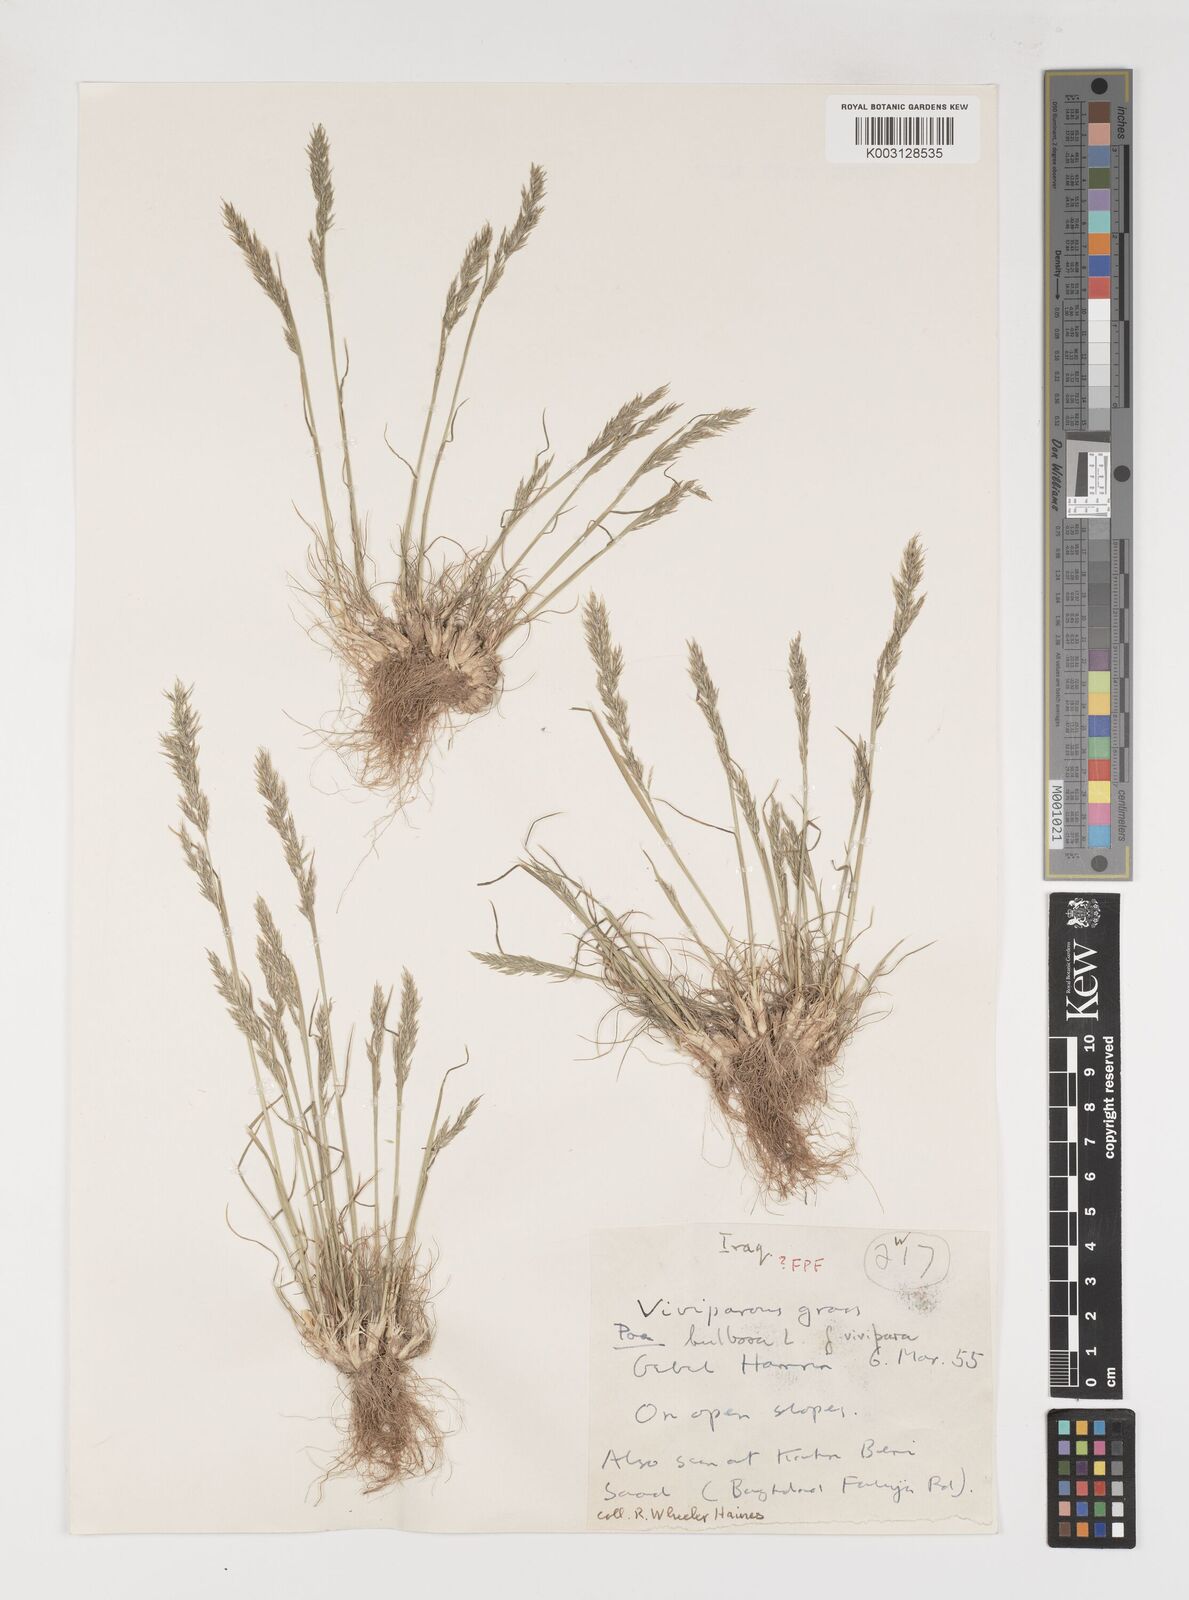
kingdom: Plantae
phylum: Tracheophyta
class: Liliopsida
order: Poales
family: Poaceae
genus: Poa
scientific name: Poa sinaica
